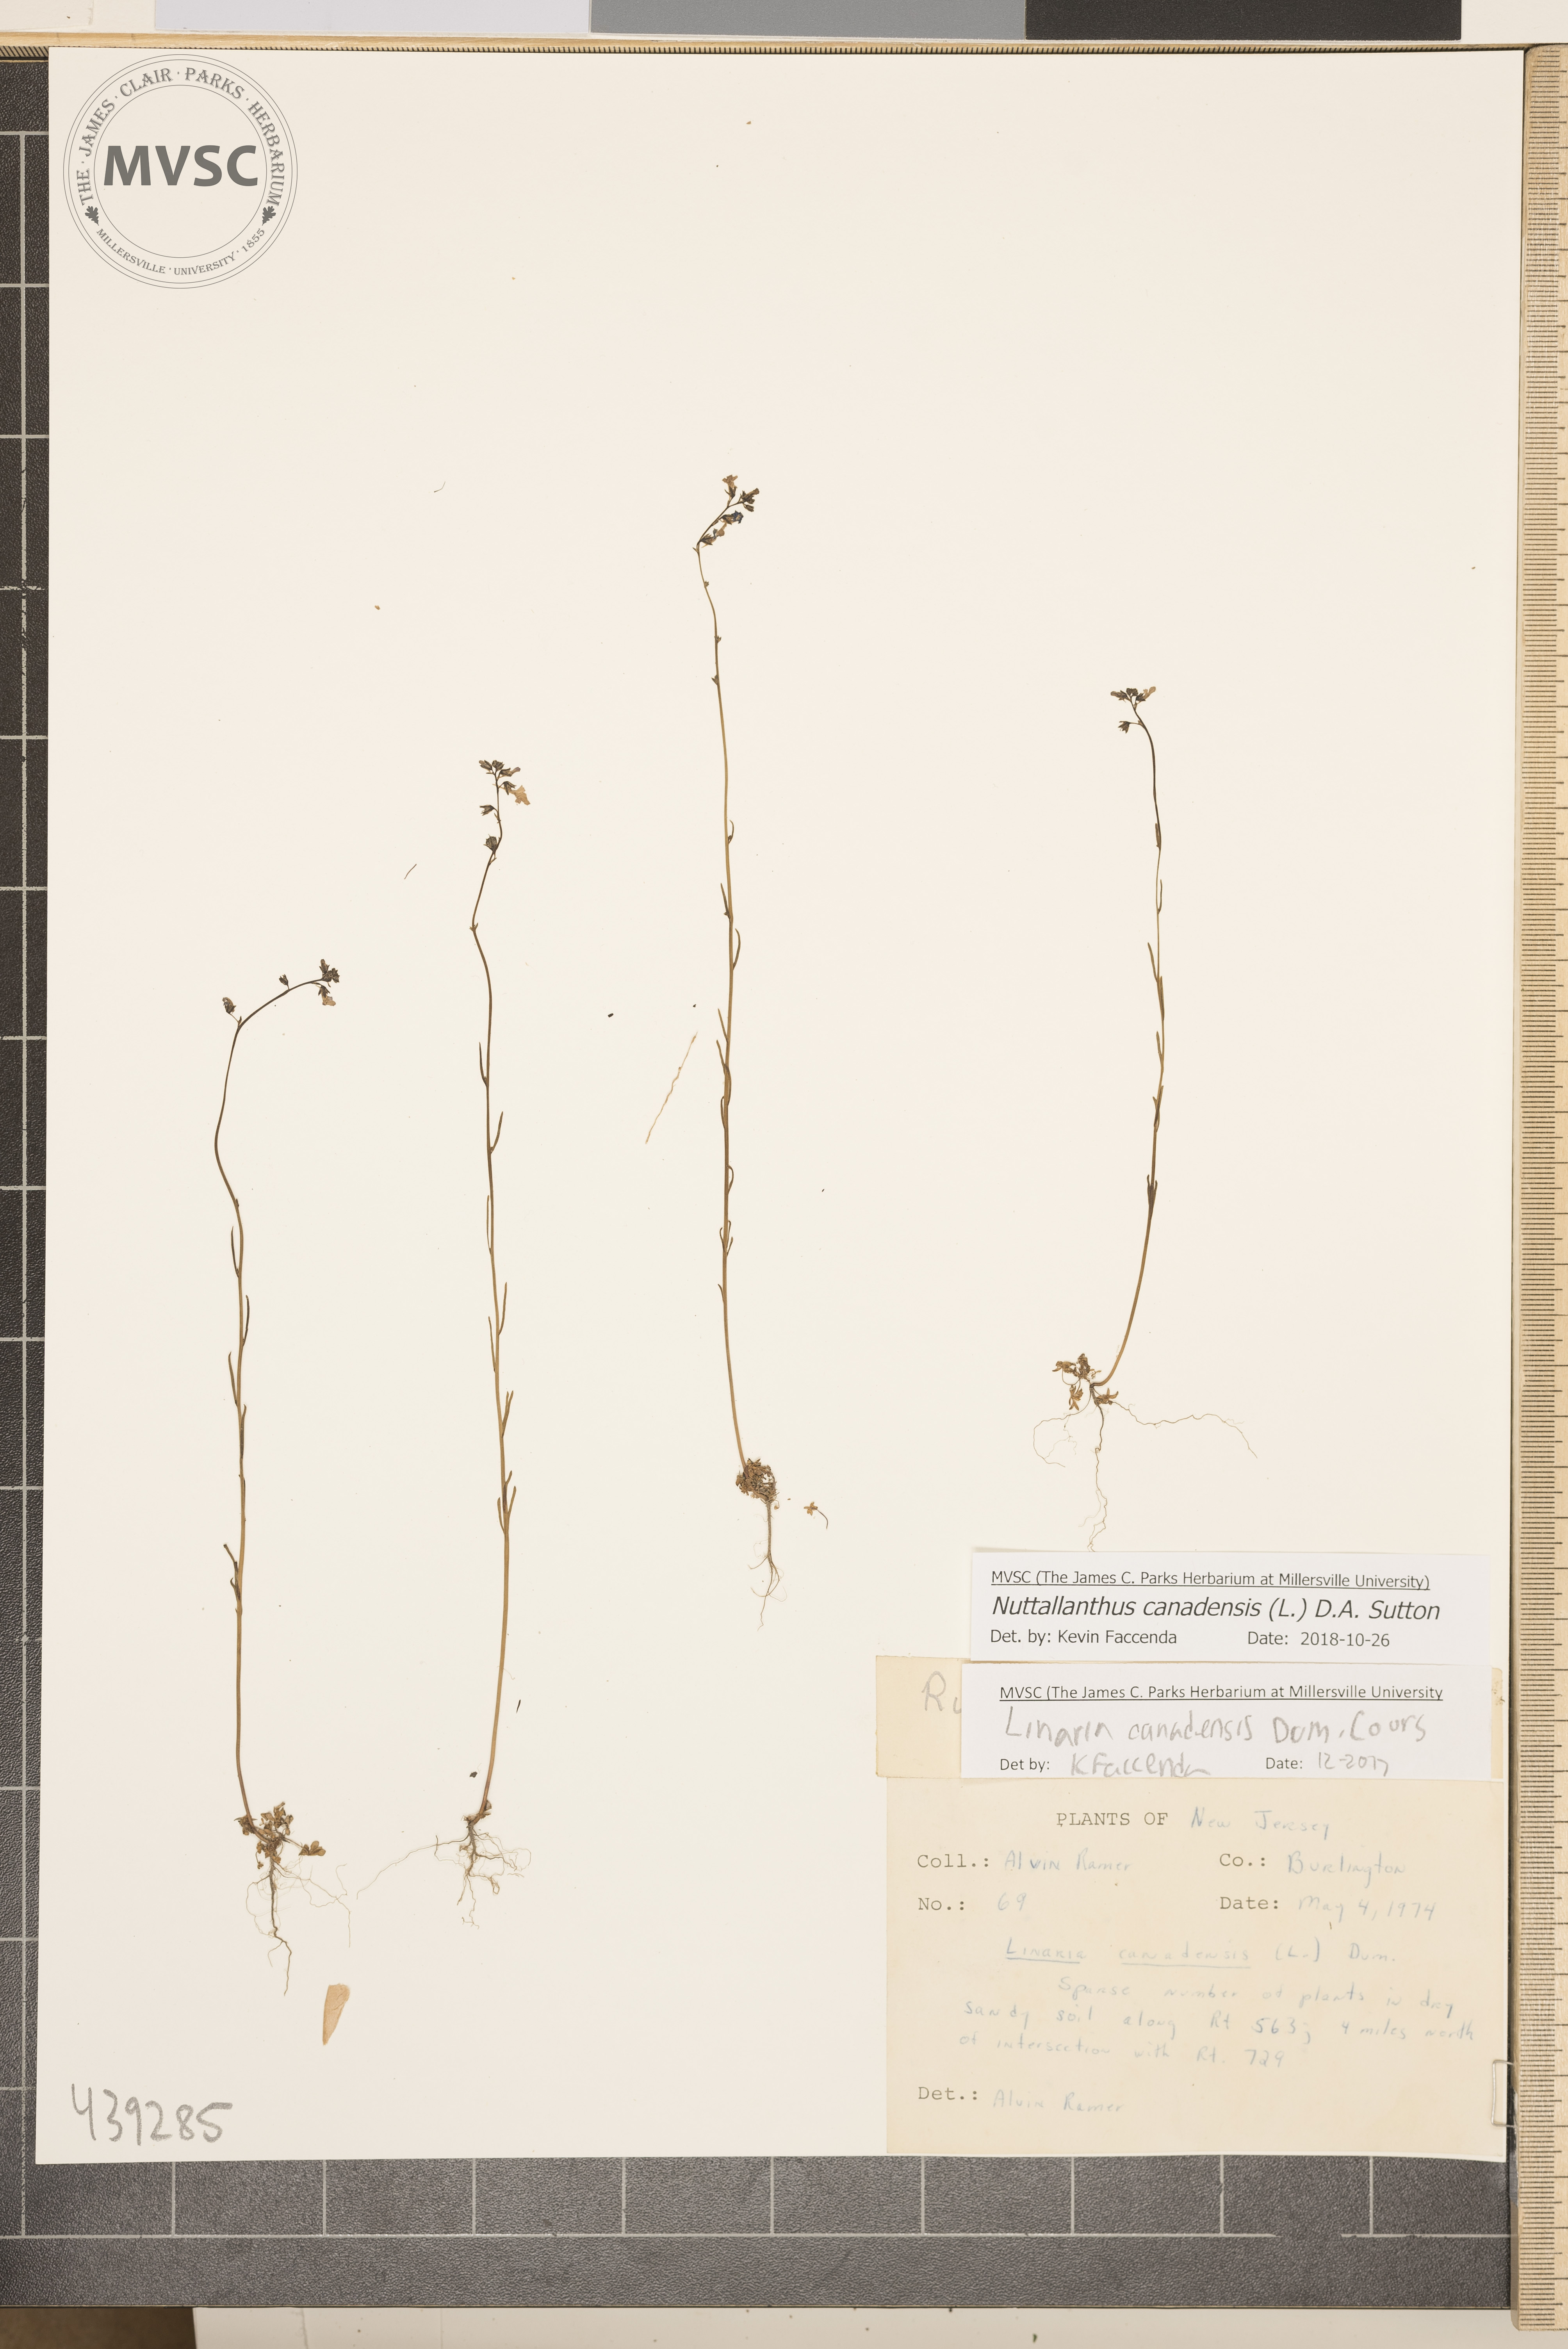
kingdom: Plantae
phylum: Tracheophyta
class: Magnoliopsida
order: Lamiales
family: Plantaginaceae
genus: Nuttallanthus
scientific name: Nuttallanthus canadensis
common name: Blue toadflax
